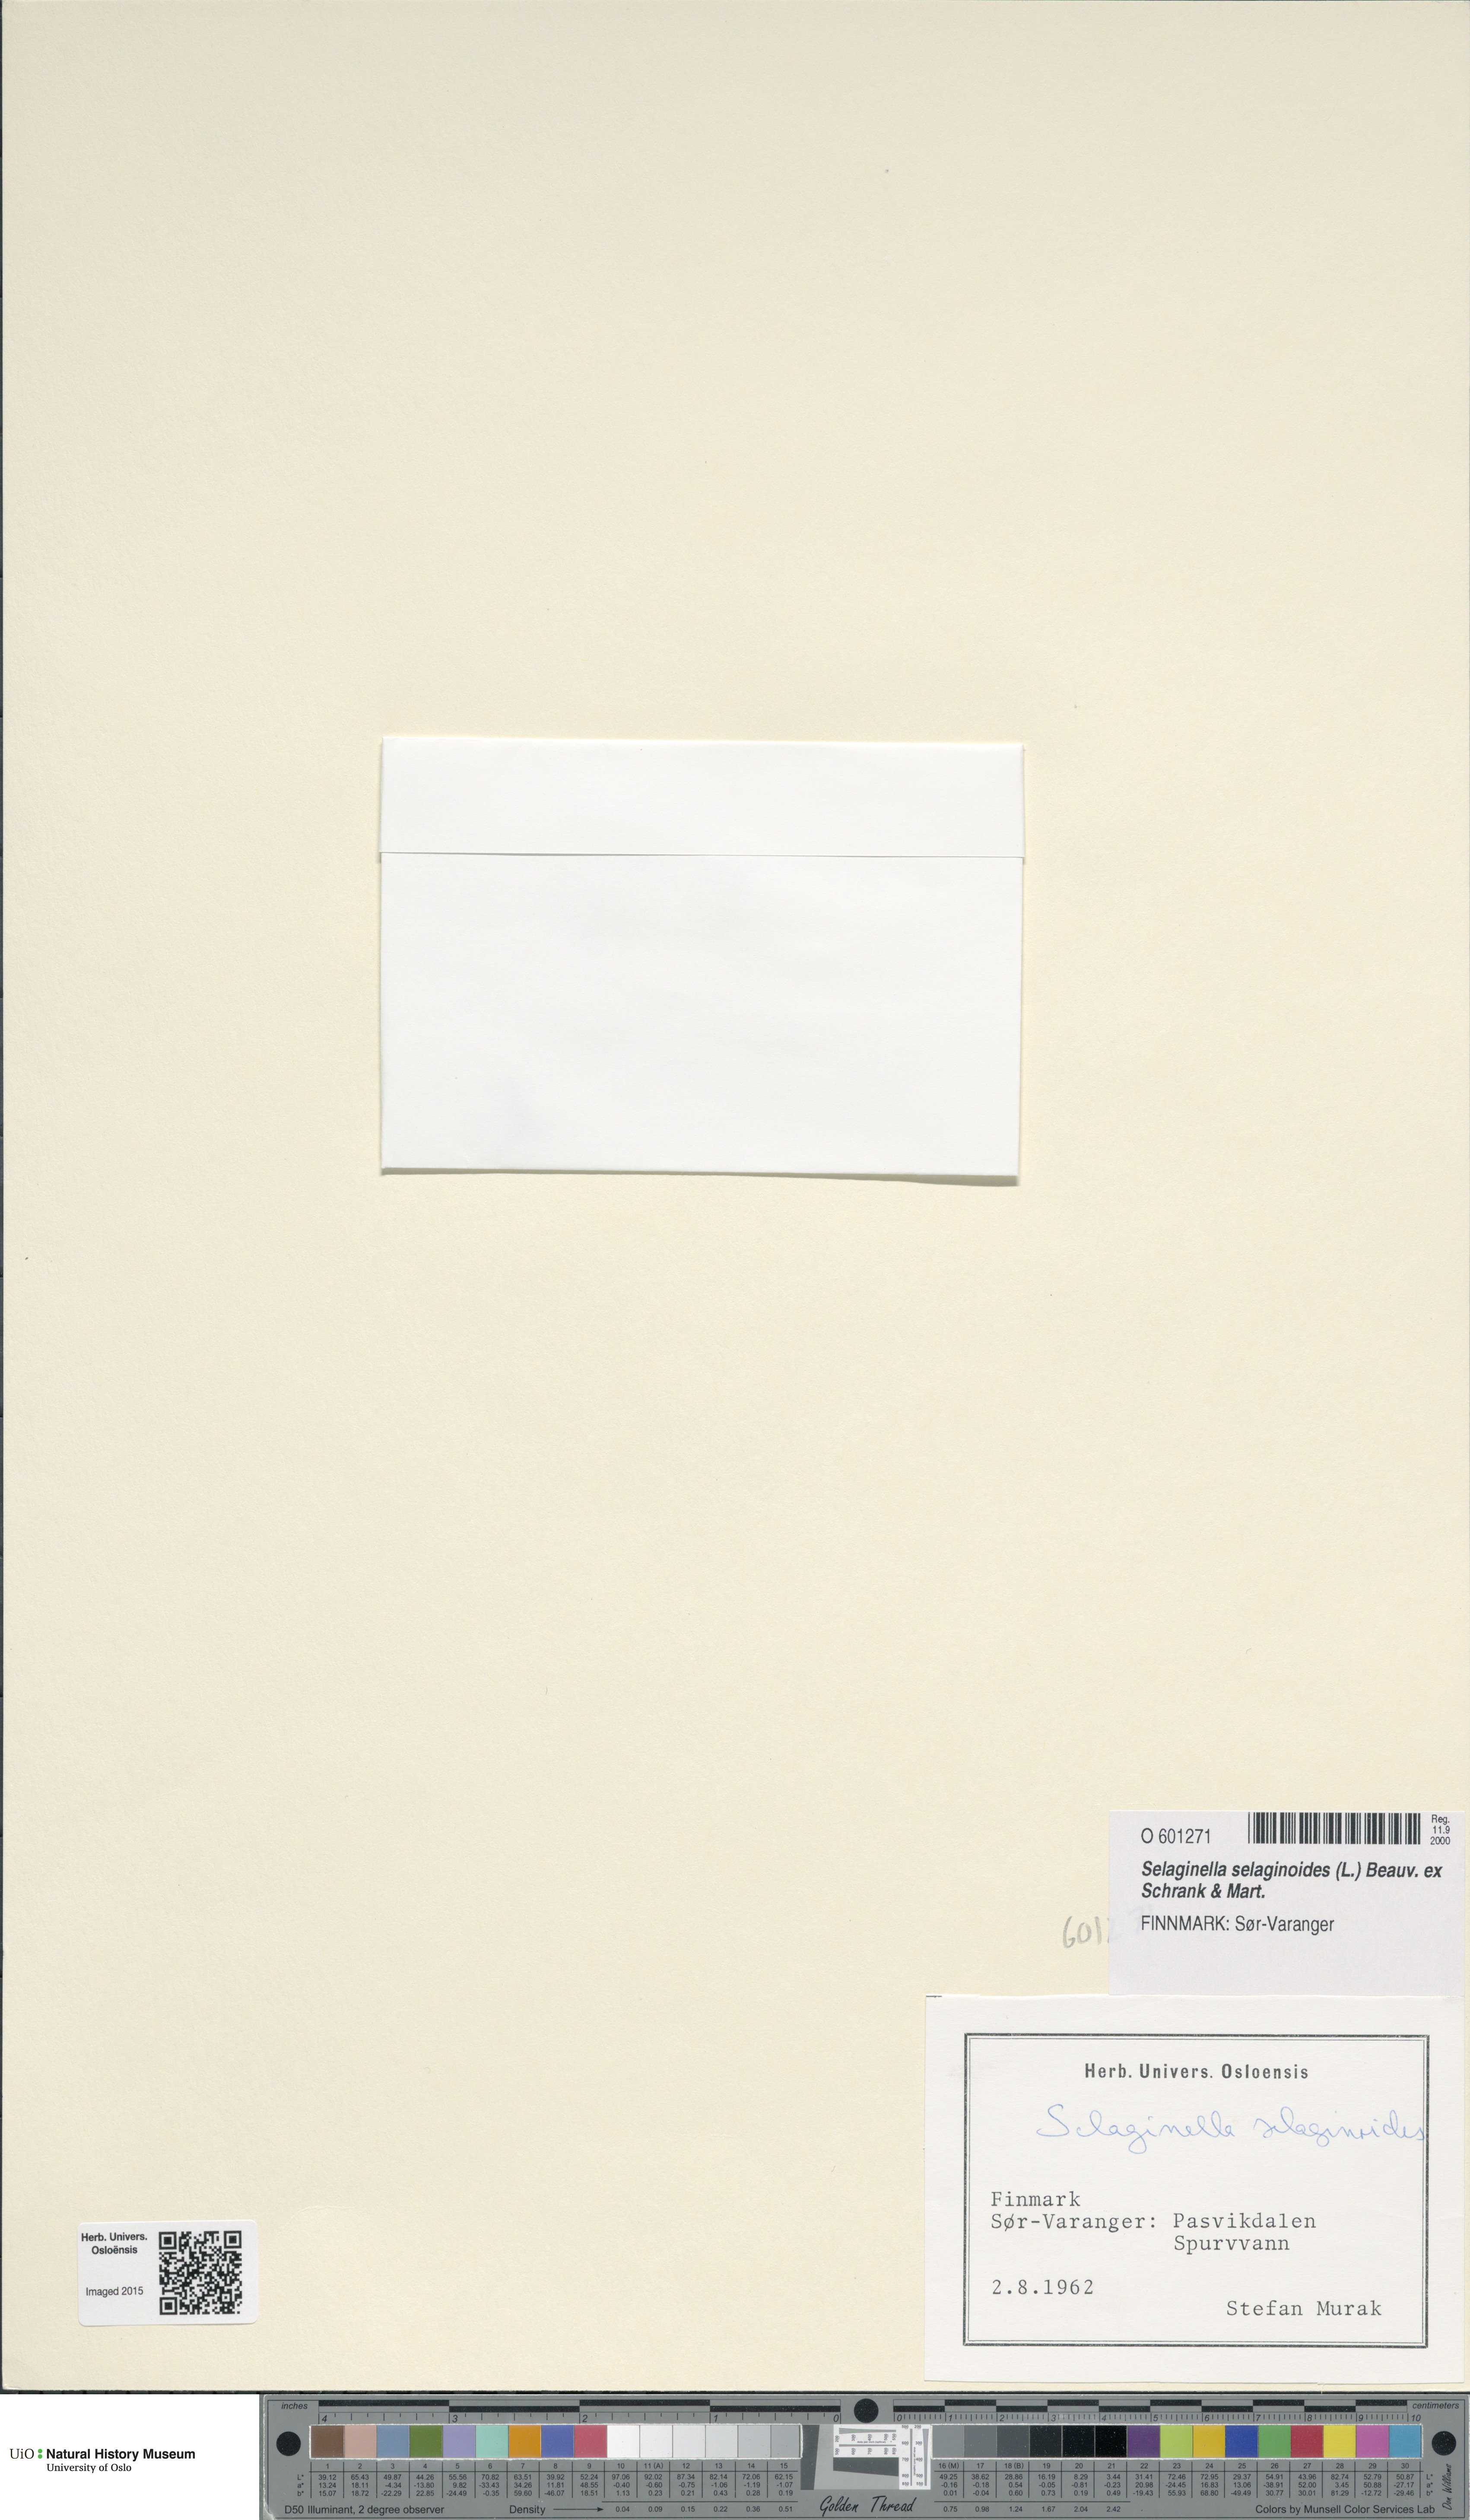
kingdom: Plantae
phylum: Tracheophyta
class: Lycopodiopsida
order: Selaginellales
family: Selaginellaceae
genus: Selaginella
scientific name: Selaginella selaginoides
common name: Prickly mountain-moss
